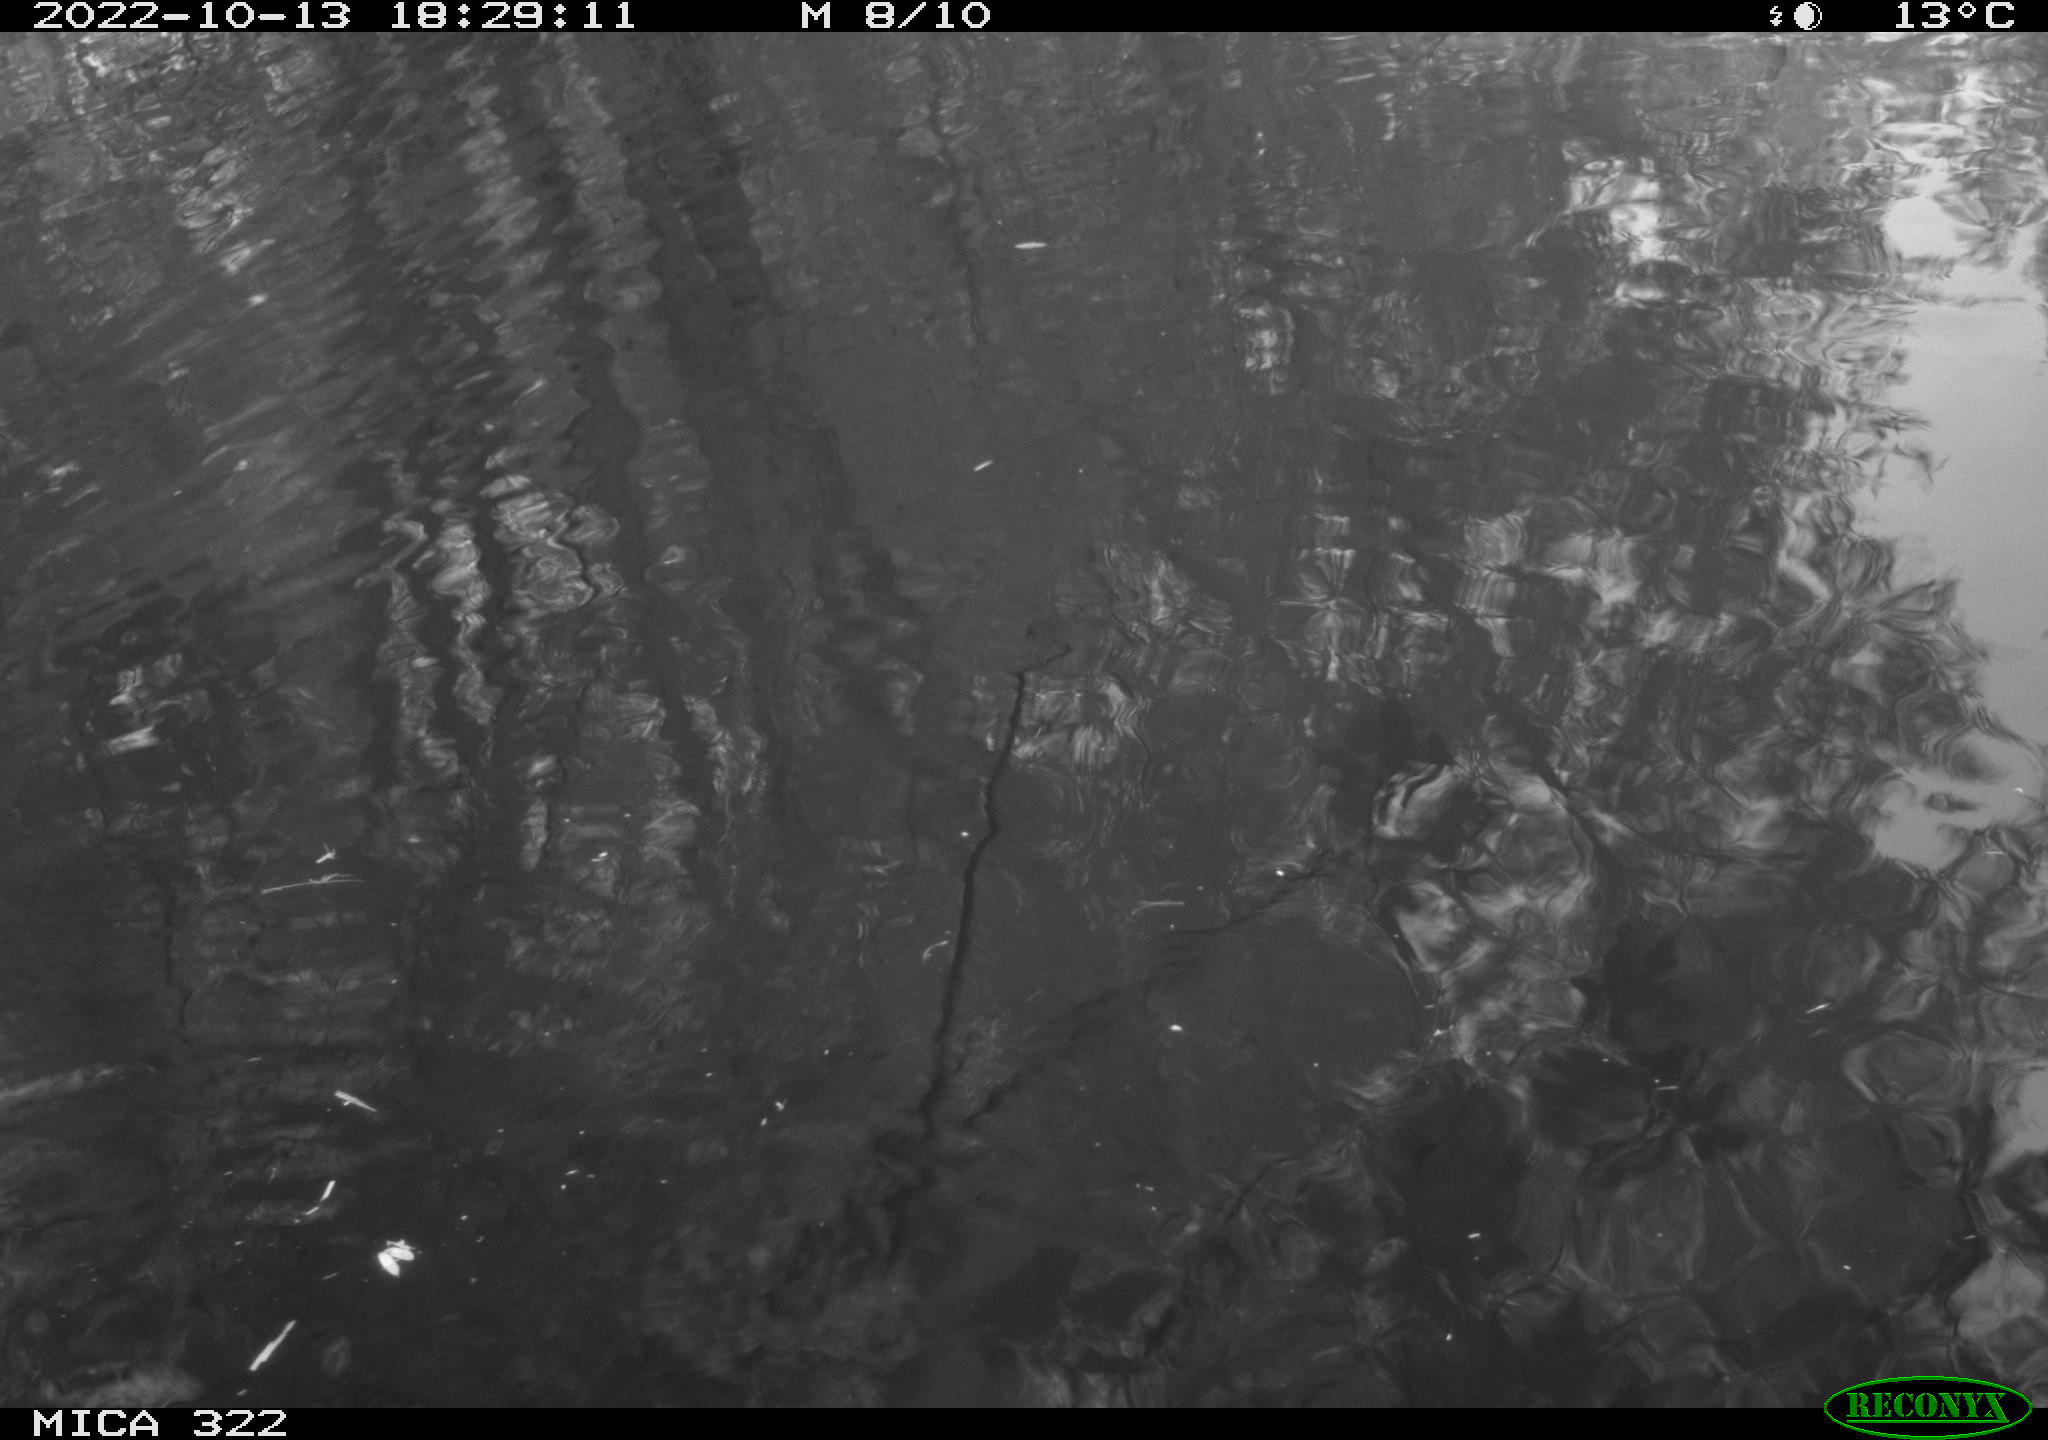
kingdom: Animalia
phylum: Chordata
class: Aves
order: Gruiformes
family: Rallidae
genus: Fulica
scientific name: Fulica atra
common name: Eurasian coot
